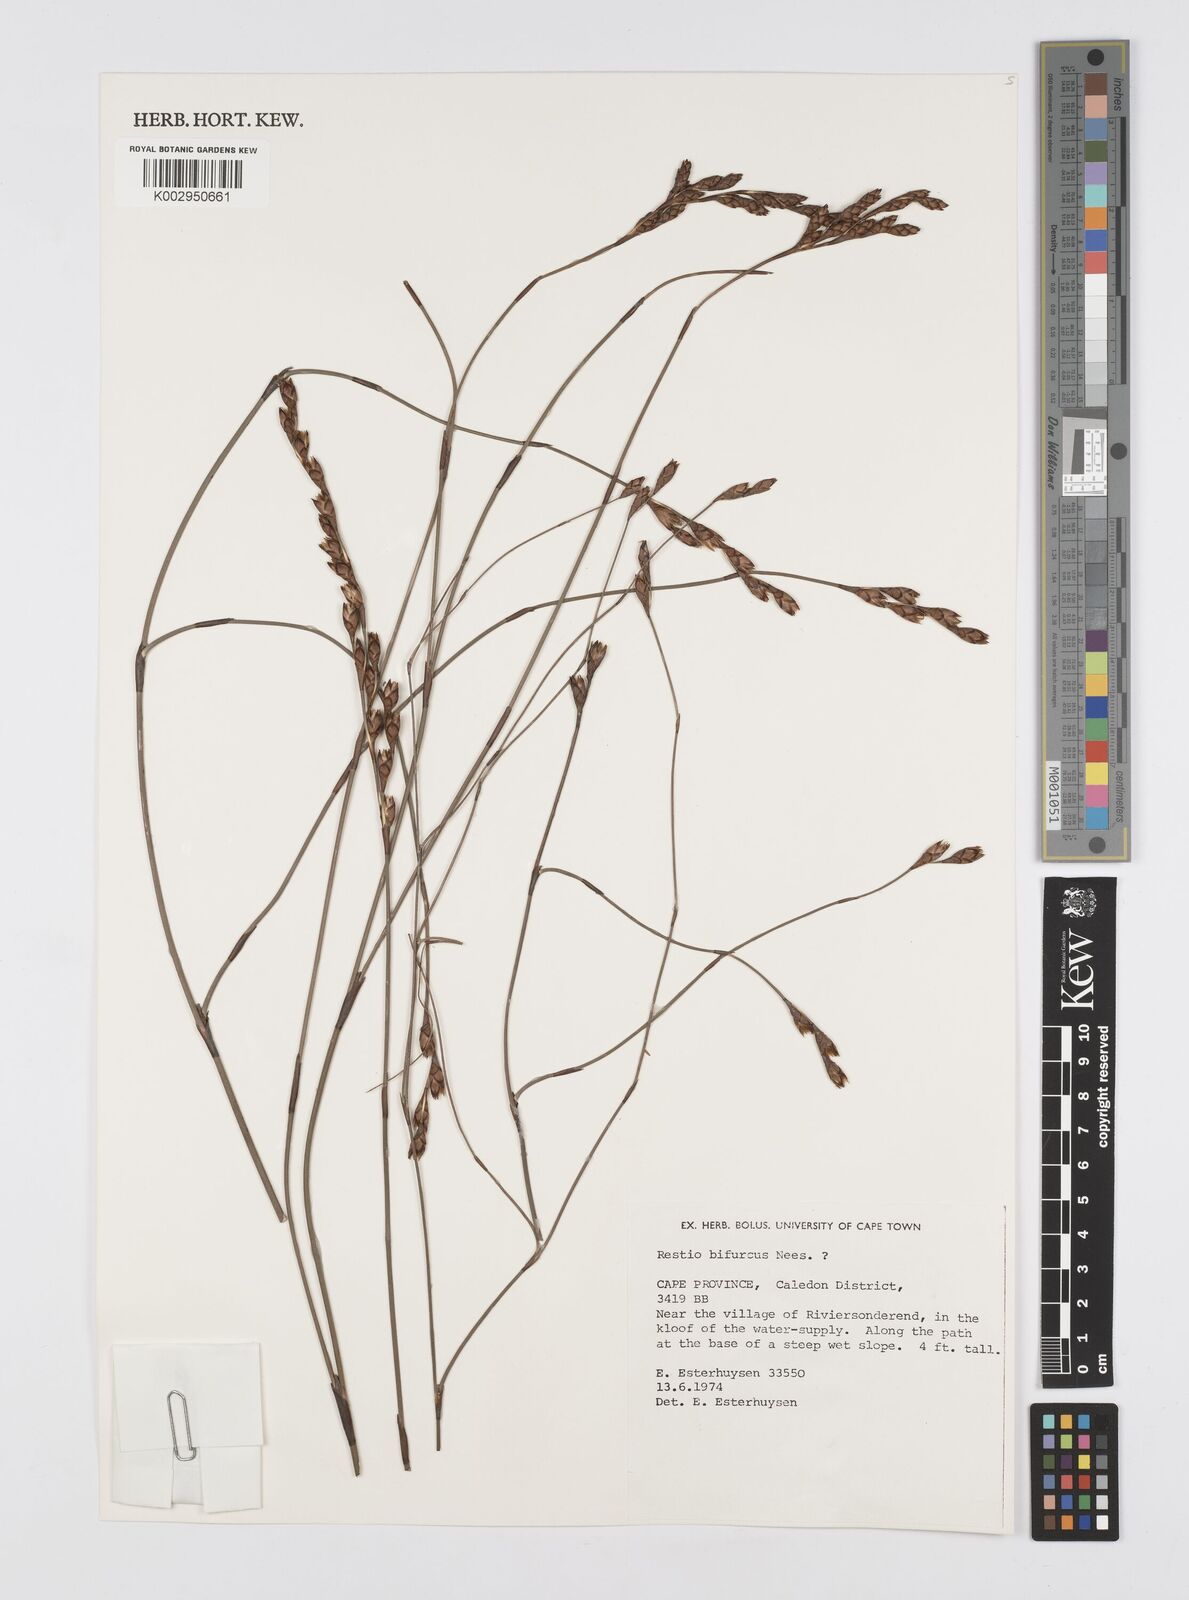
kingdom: Plantae
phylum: Tracheophyta
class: Liliopsida
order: Poales
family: Restionaceae
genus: Restio
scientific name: Restio bifurcus
